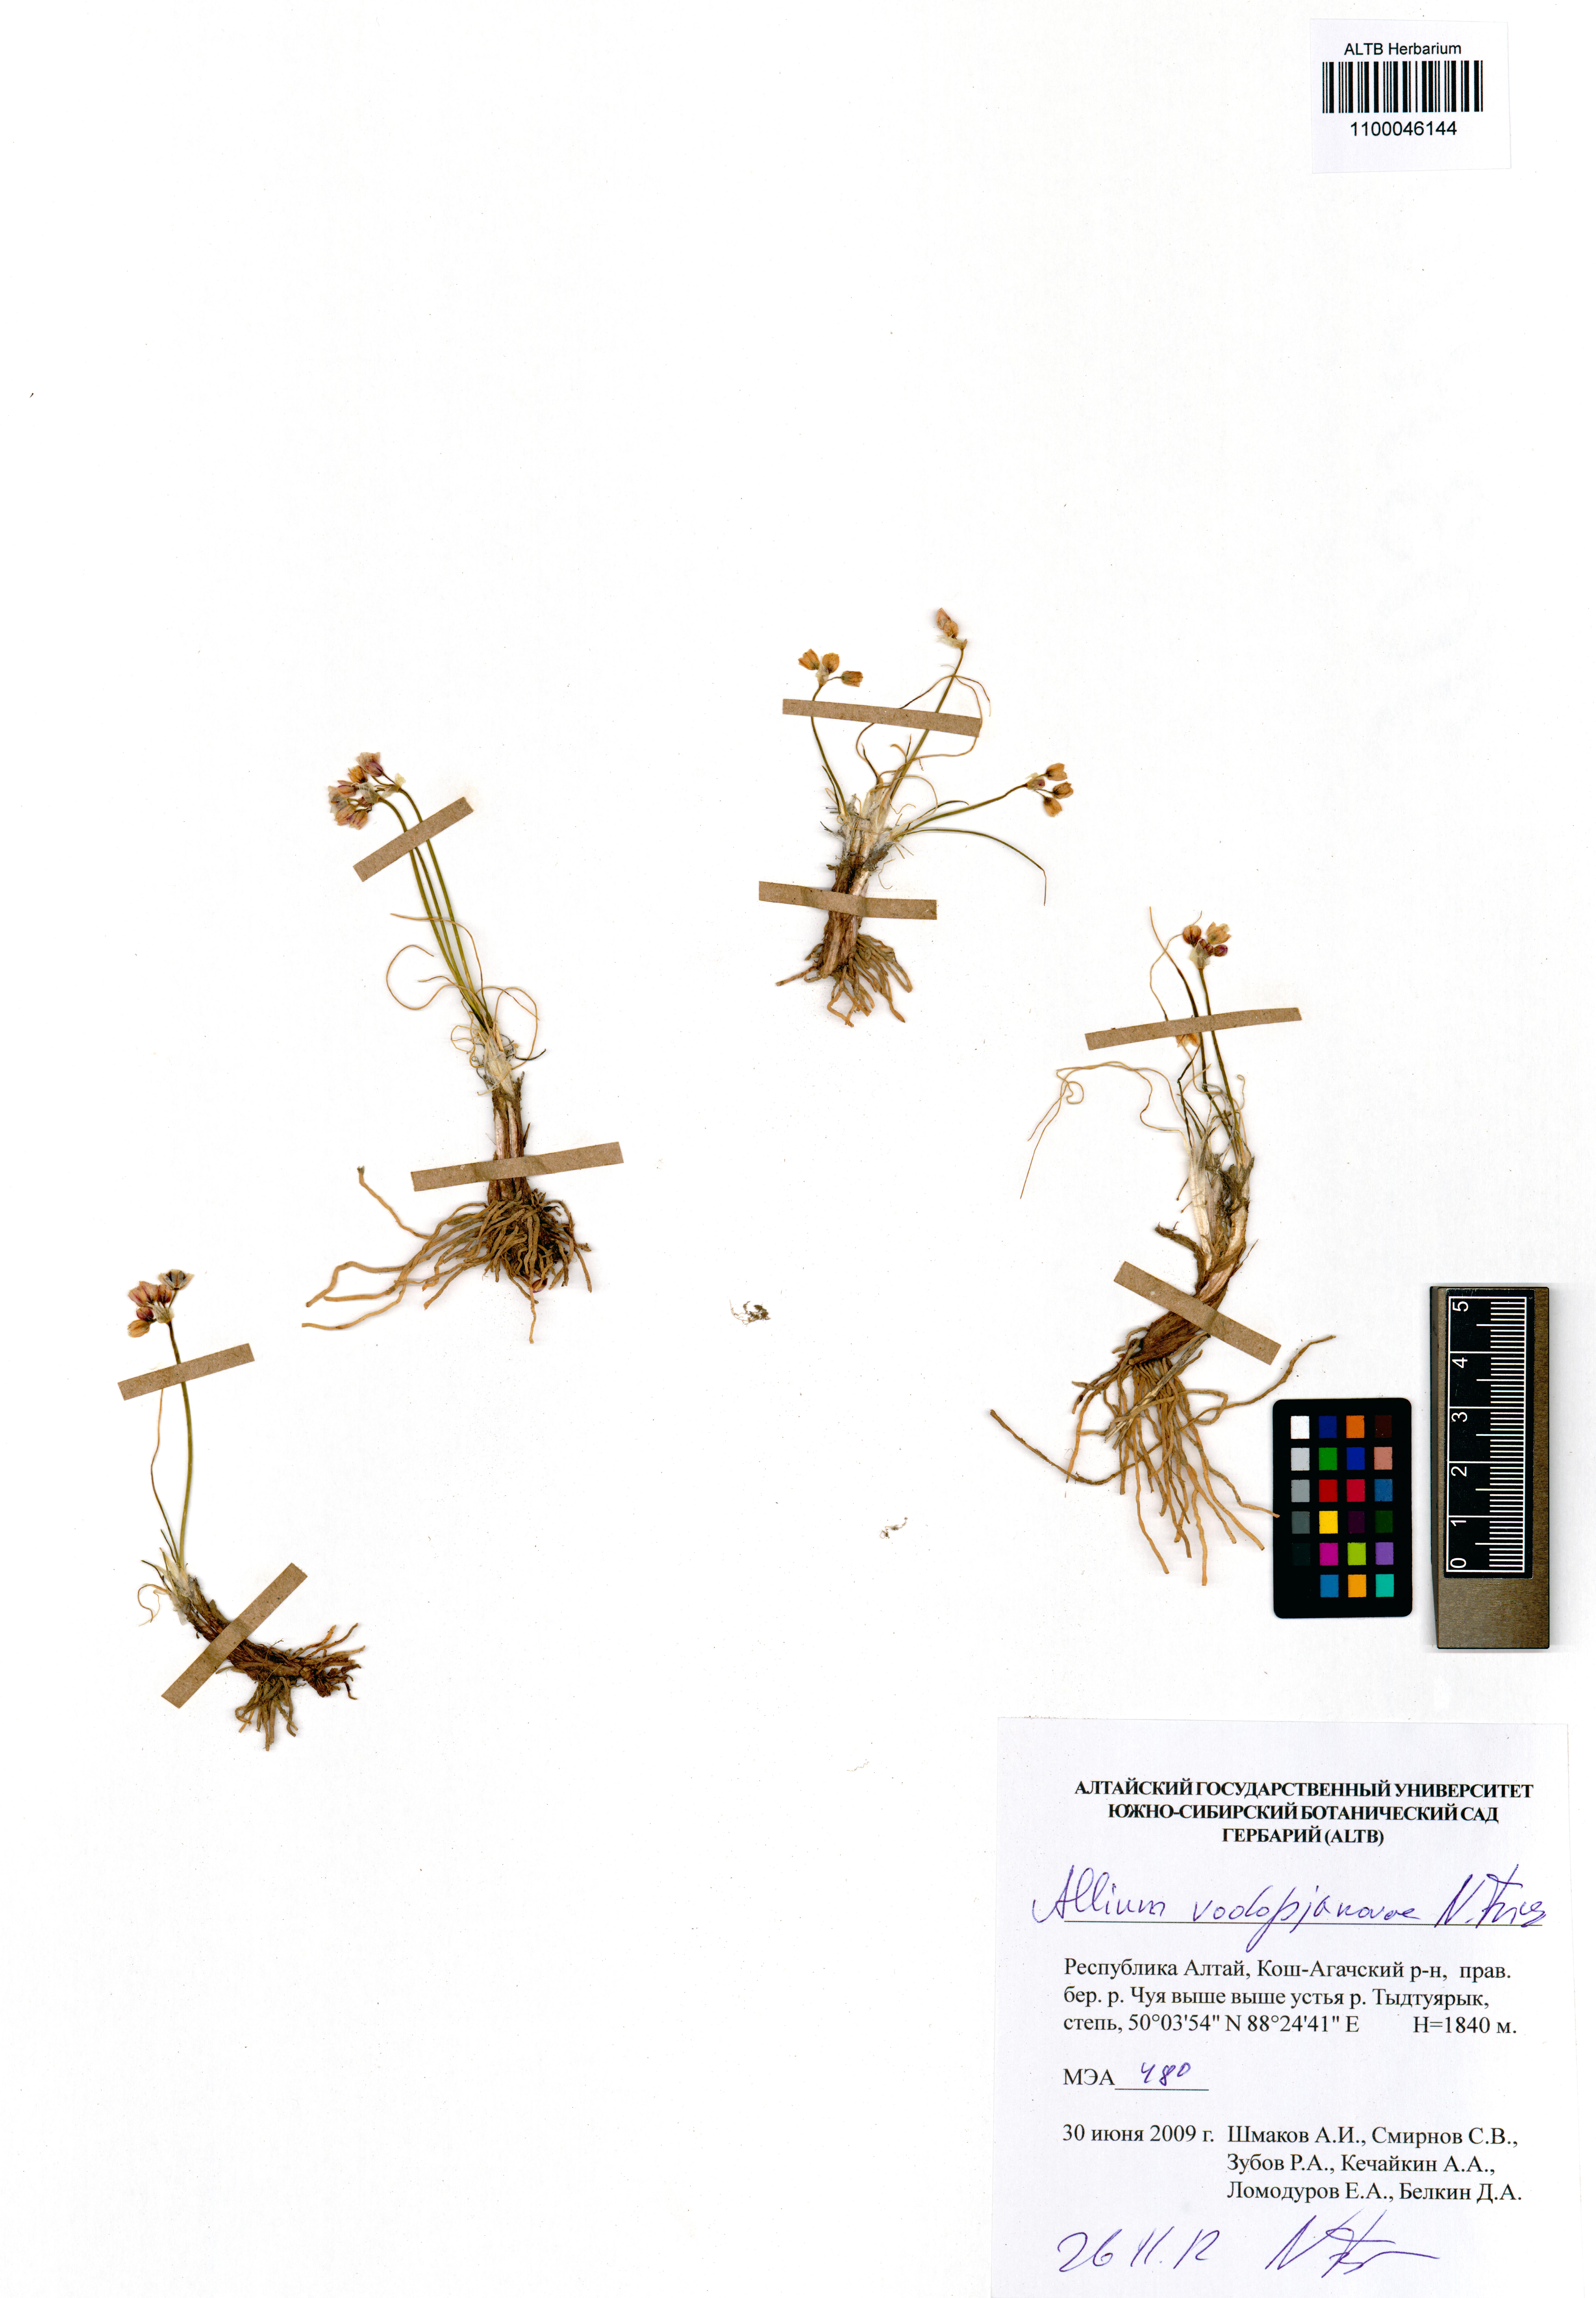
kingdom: Plantae
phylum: Tracheophyta
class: Liliopsida
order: Asparagales
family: Amaryllidaceae
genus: Allium
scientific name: Allium vodopjanovae
